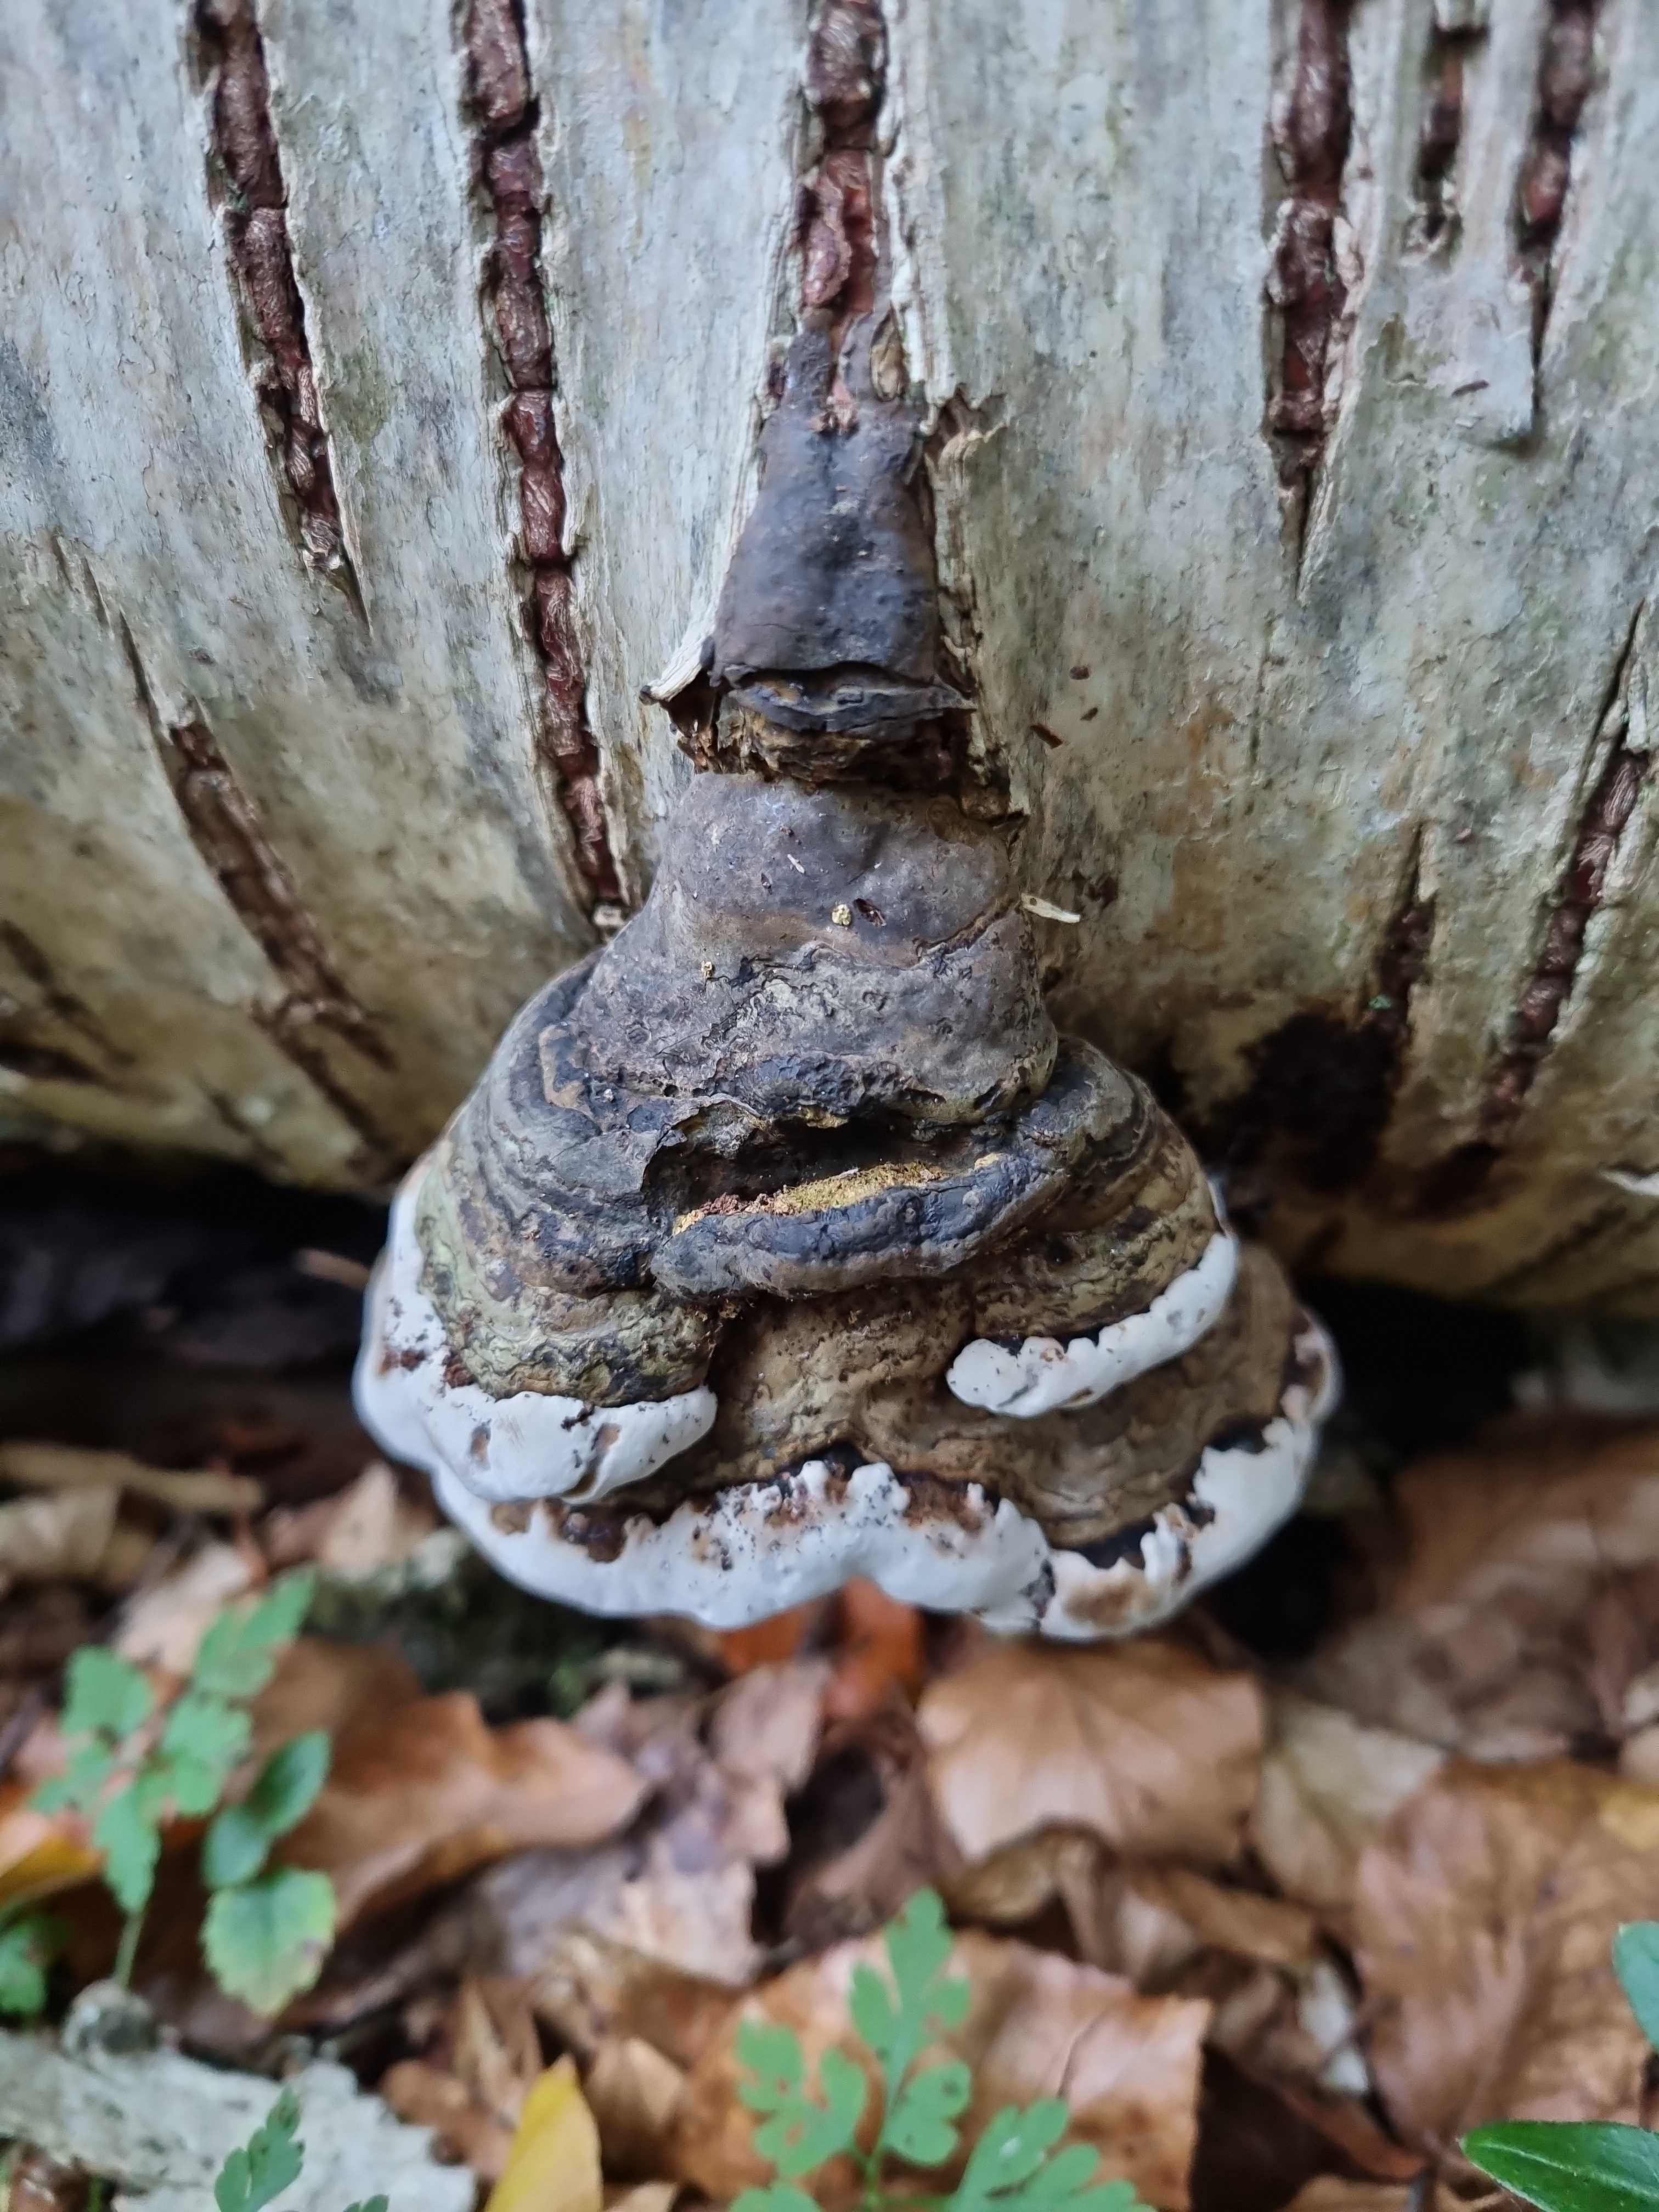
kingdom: Fungi
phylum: Basidiomycota
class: Agaricomycetes
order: Polyporales
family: Polyporaceae
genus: Fomes
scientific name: Fomes fomentarius
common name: tøndersvamp
